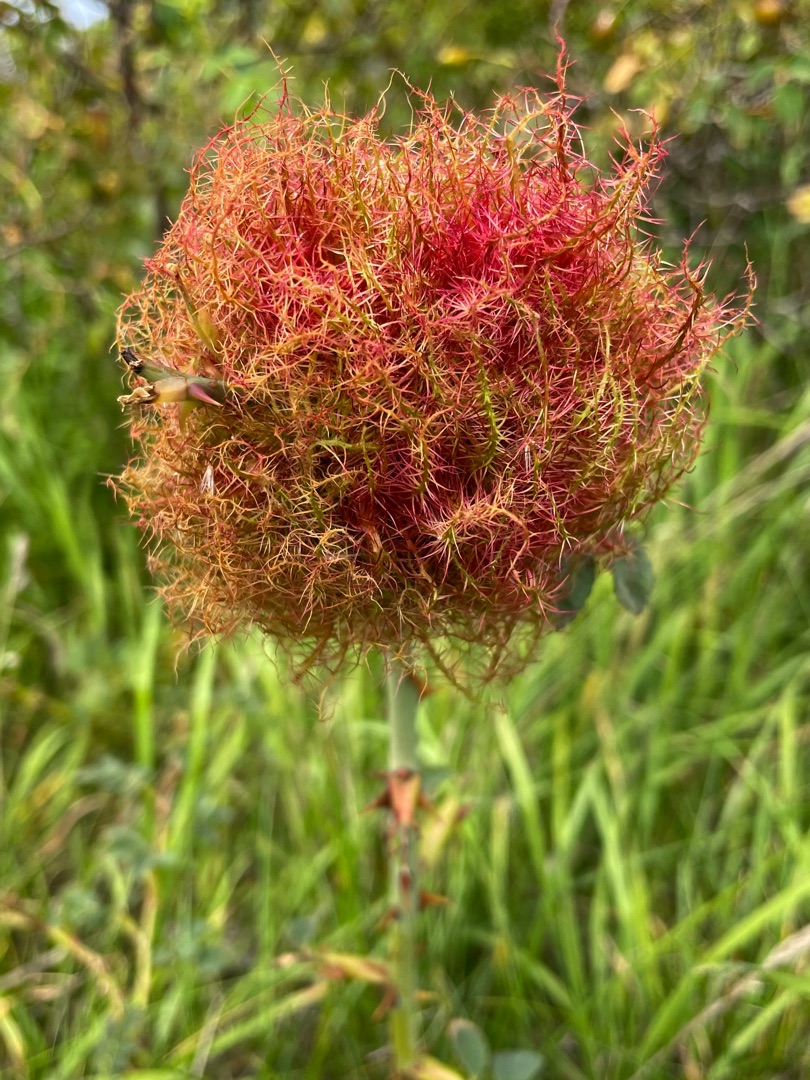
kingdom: Animalia
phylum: Arthropoda
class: Insecta
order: Hymenoptera
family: Cynipidae
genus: Diplolepis
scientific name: Diplolepis rosae
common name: Bedeguargalhveps
